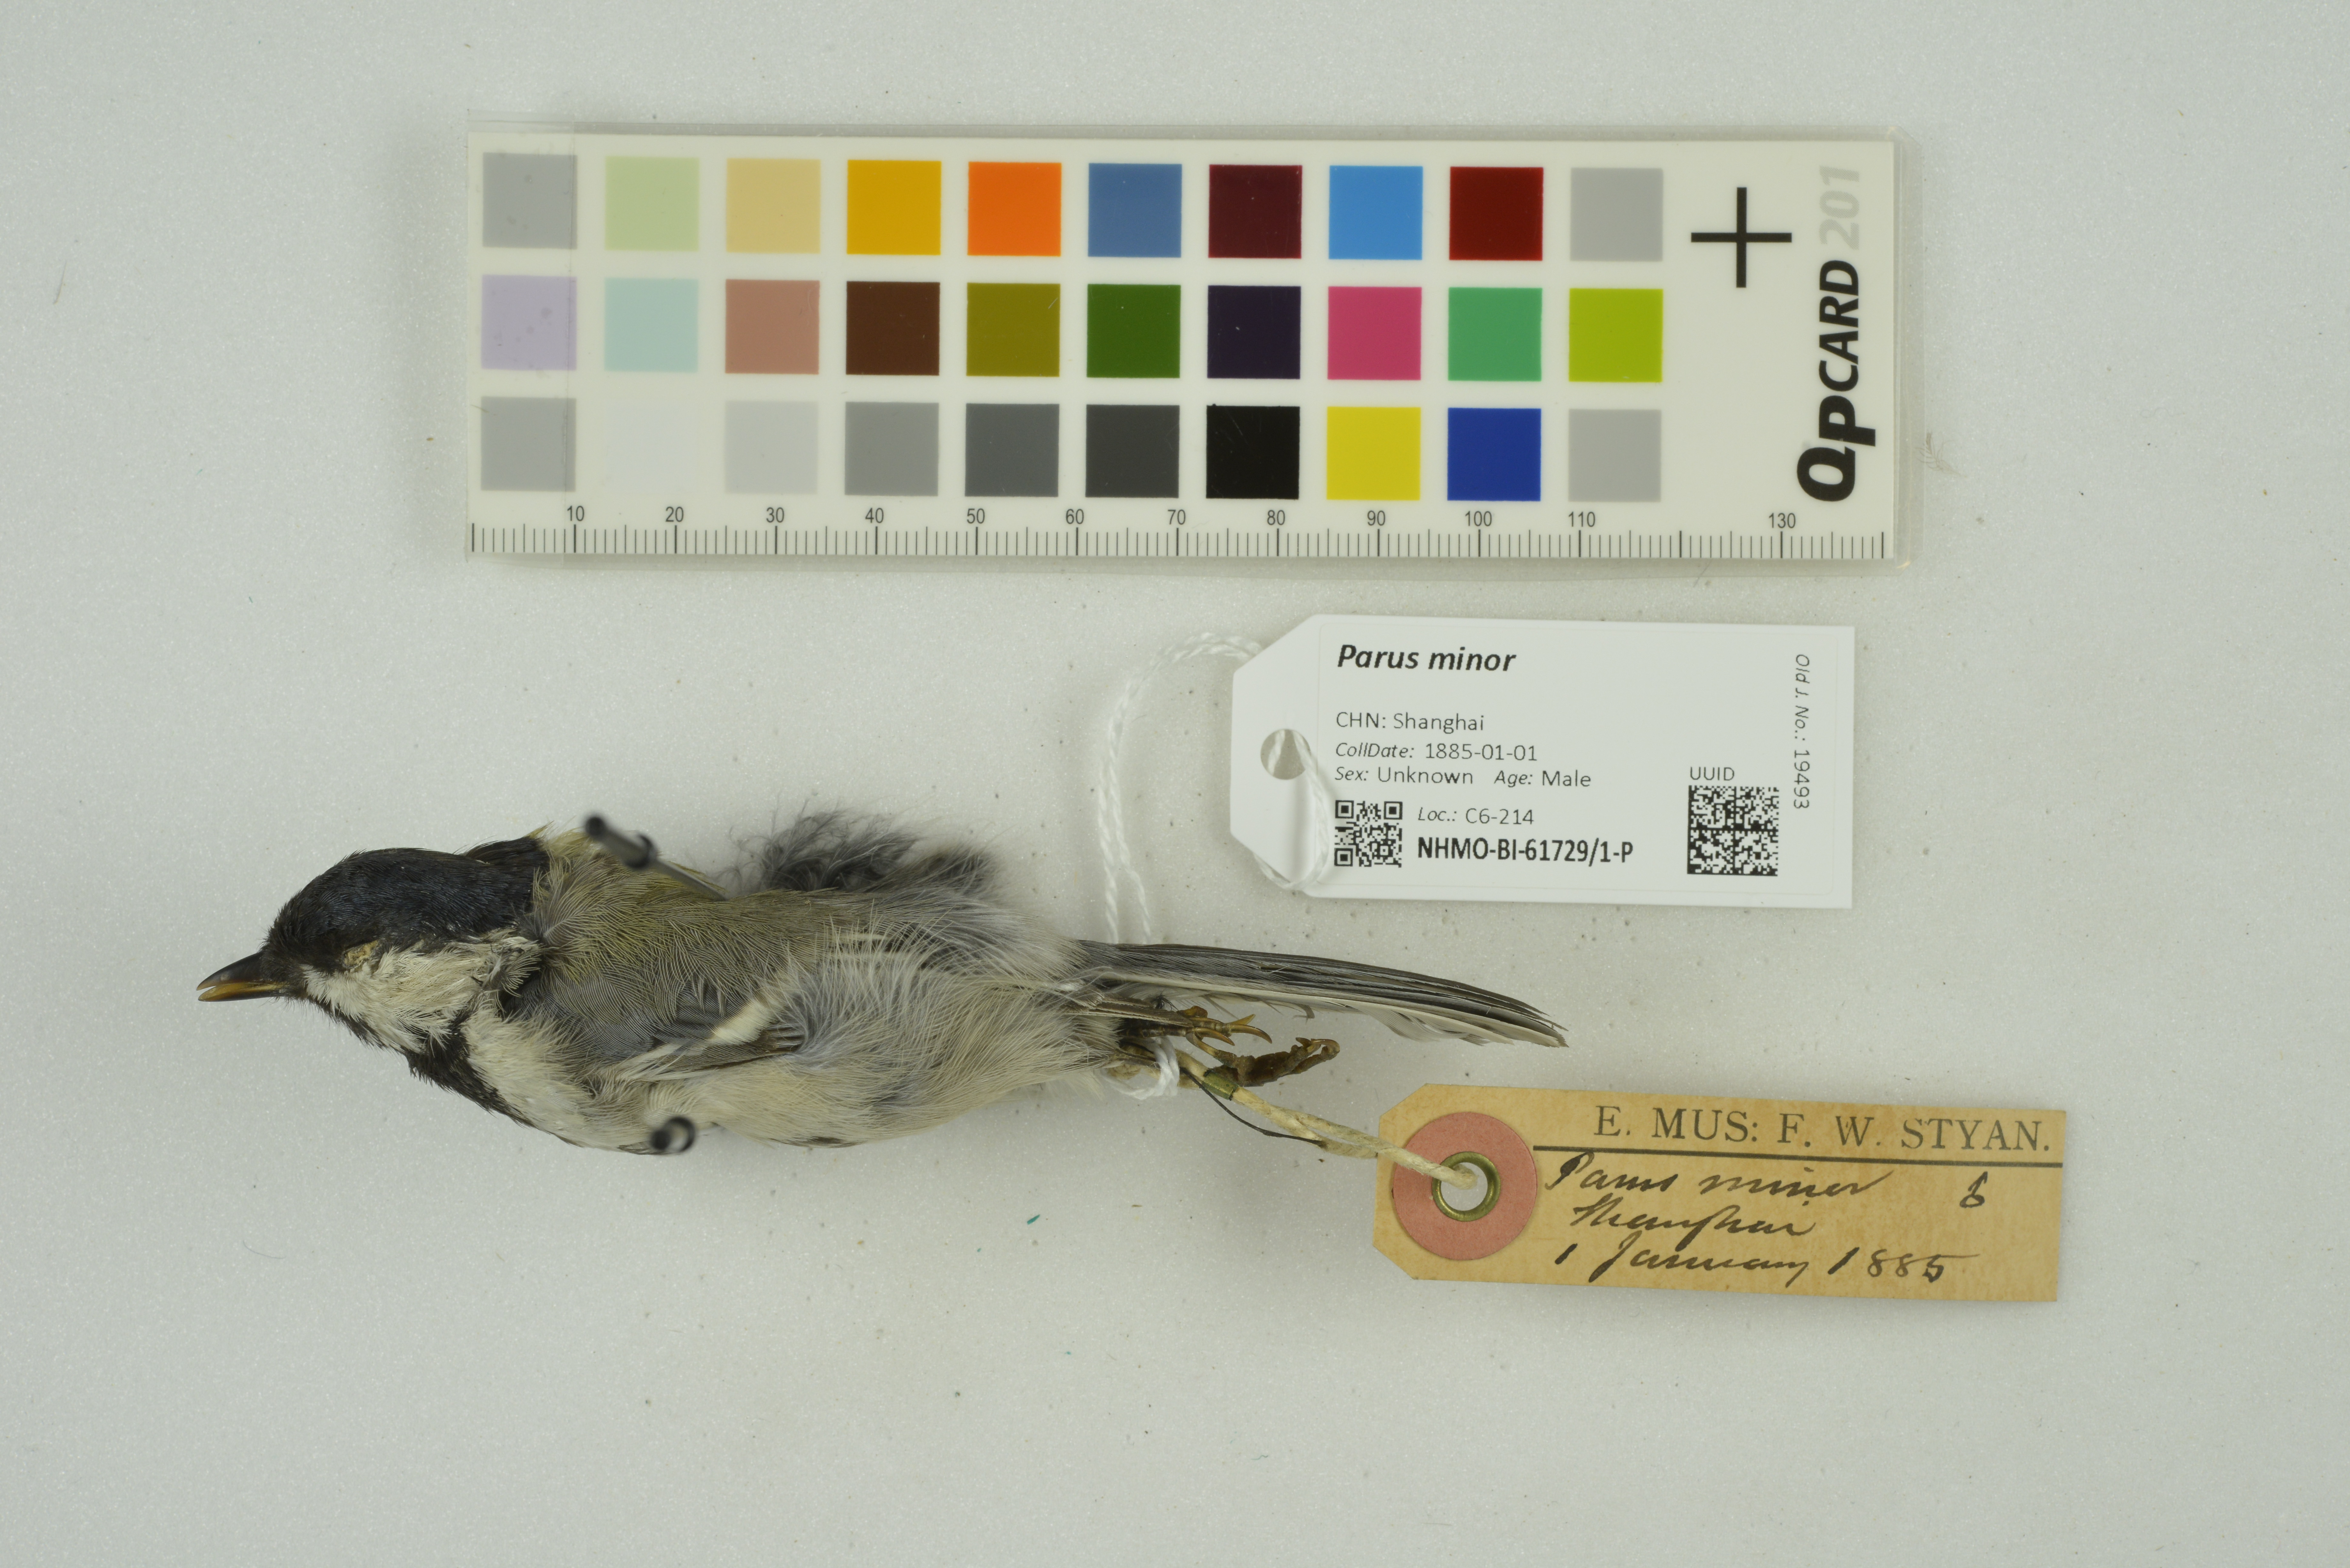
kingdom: Animalia
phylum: Chordata
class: Aves
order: Passeriformes
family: Paridae
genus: Parus
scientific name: Parus minor
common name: Japanese tit
